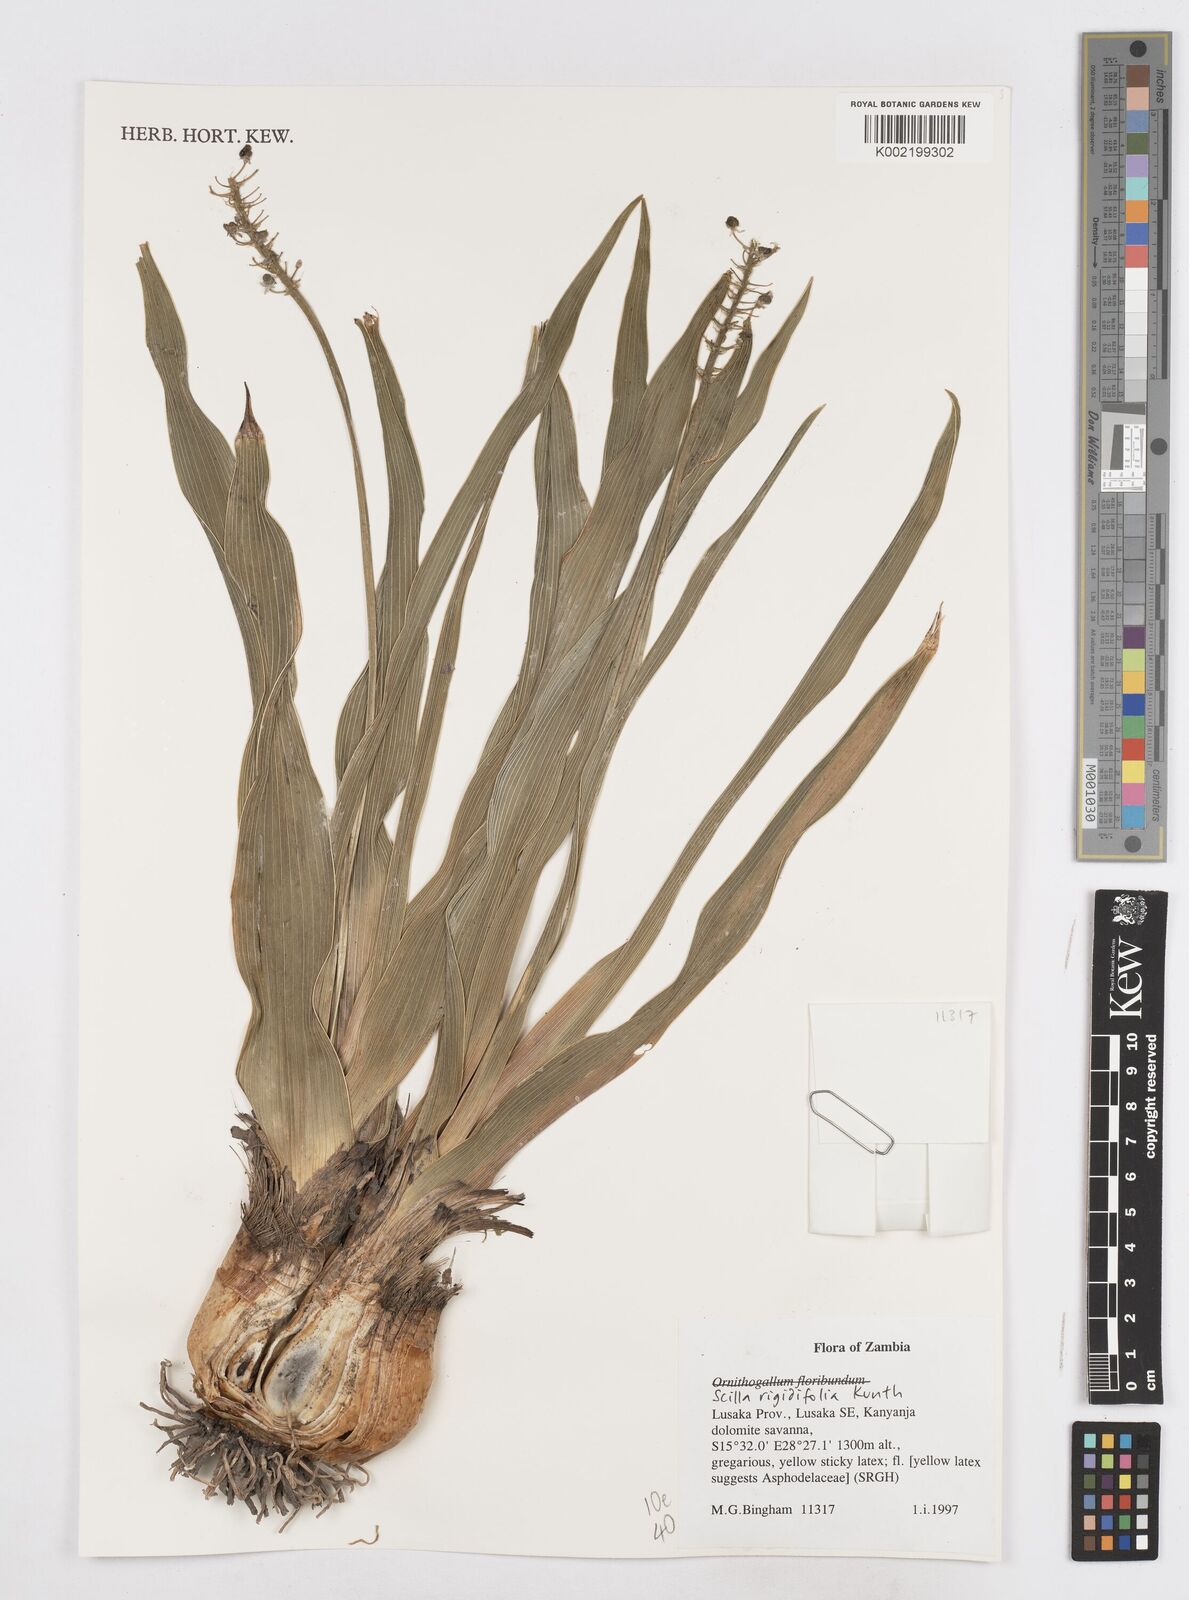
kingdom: Plantae
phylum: Tracheophyta
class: Liliopsida
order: Asparagales
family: Asparagaceae
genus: Schizocarphus
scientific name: Schizocarphus nervosus
